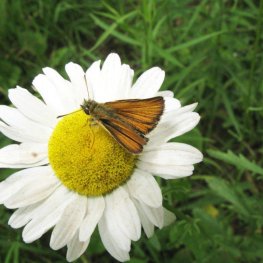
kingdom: Animalia
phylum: Arthropoda
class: Insecta
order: Lepidoptera
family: Hesperiidae
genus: Thymelicus
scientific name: Thymelicus lineola
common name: European Skipper
